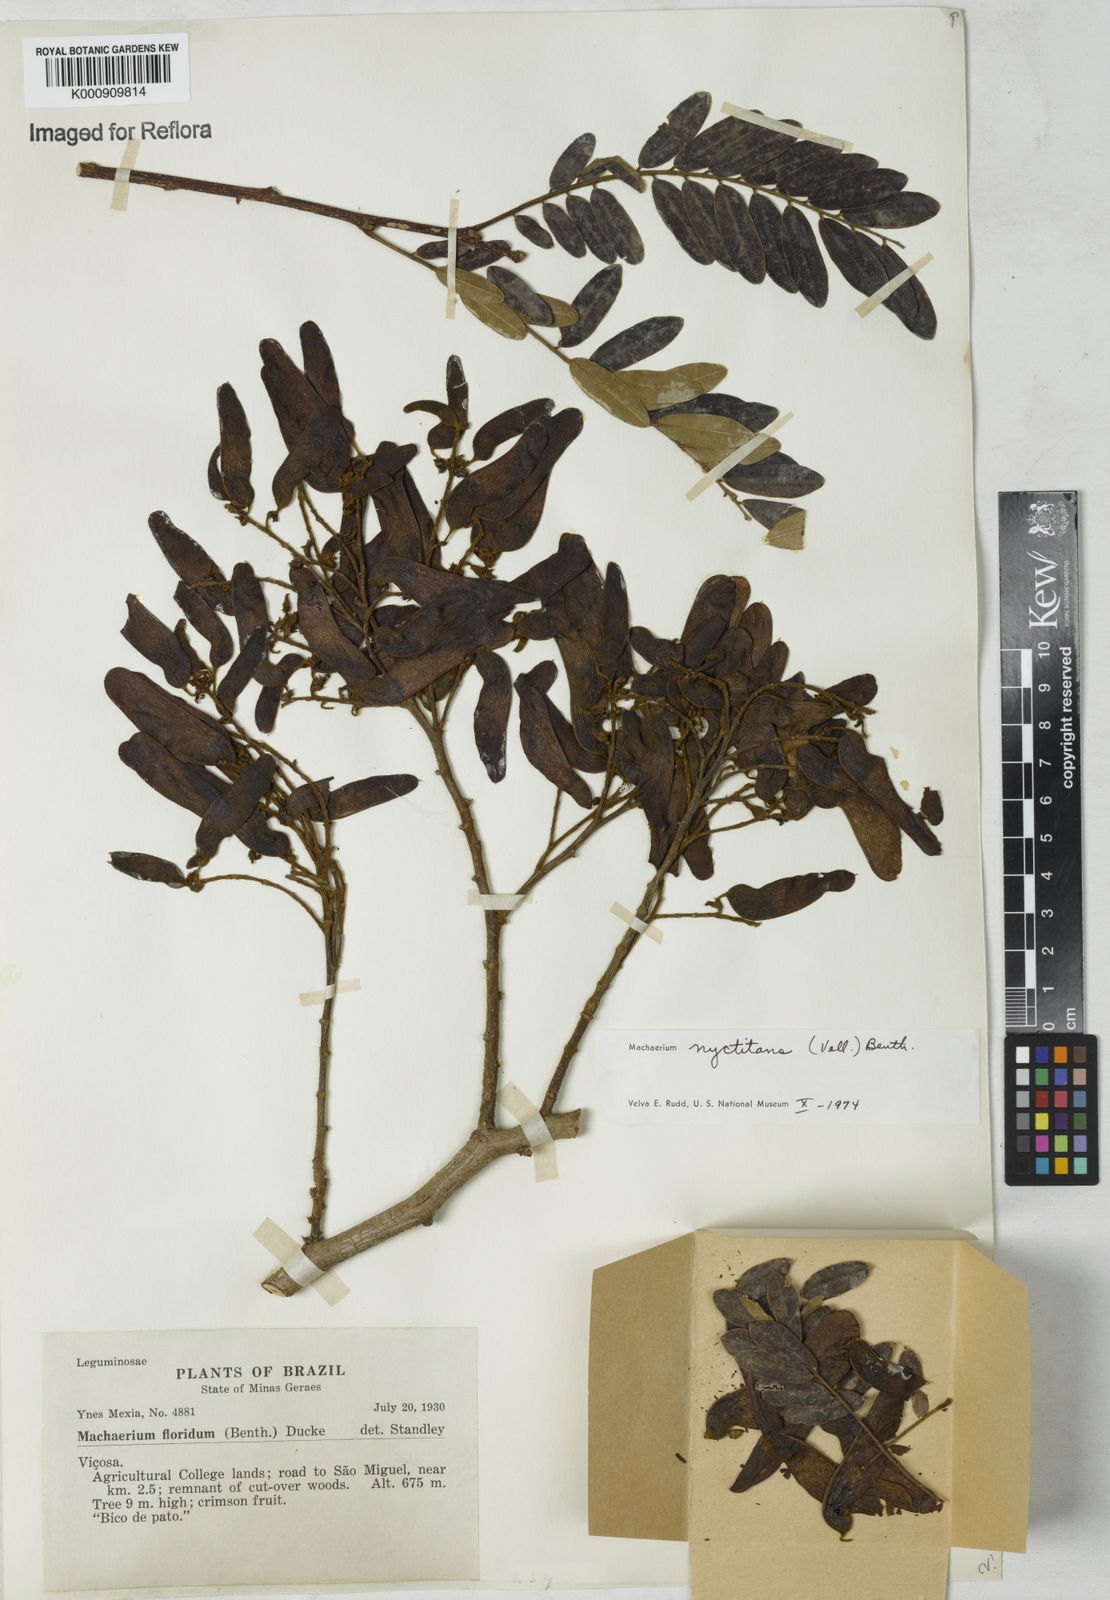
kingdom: Plantae
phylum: Tracheophyta
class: Magnoliopsida
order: Fabales
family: Fabaceae
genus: Machaerium
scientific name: Machaerium nyctitans
